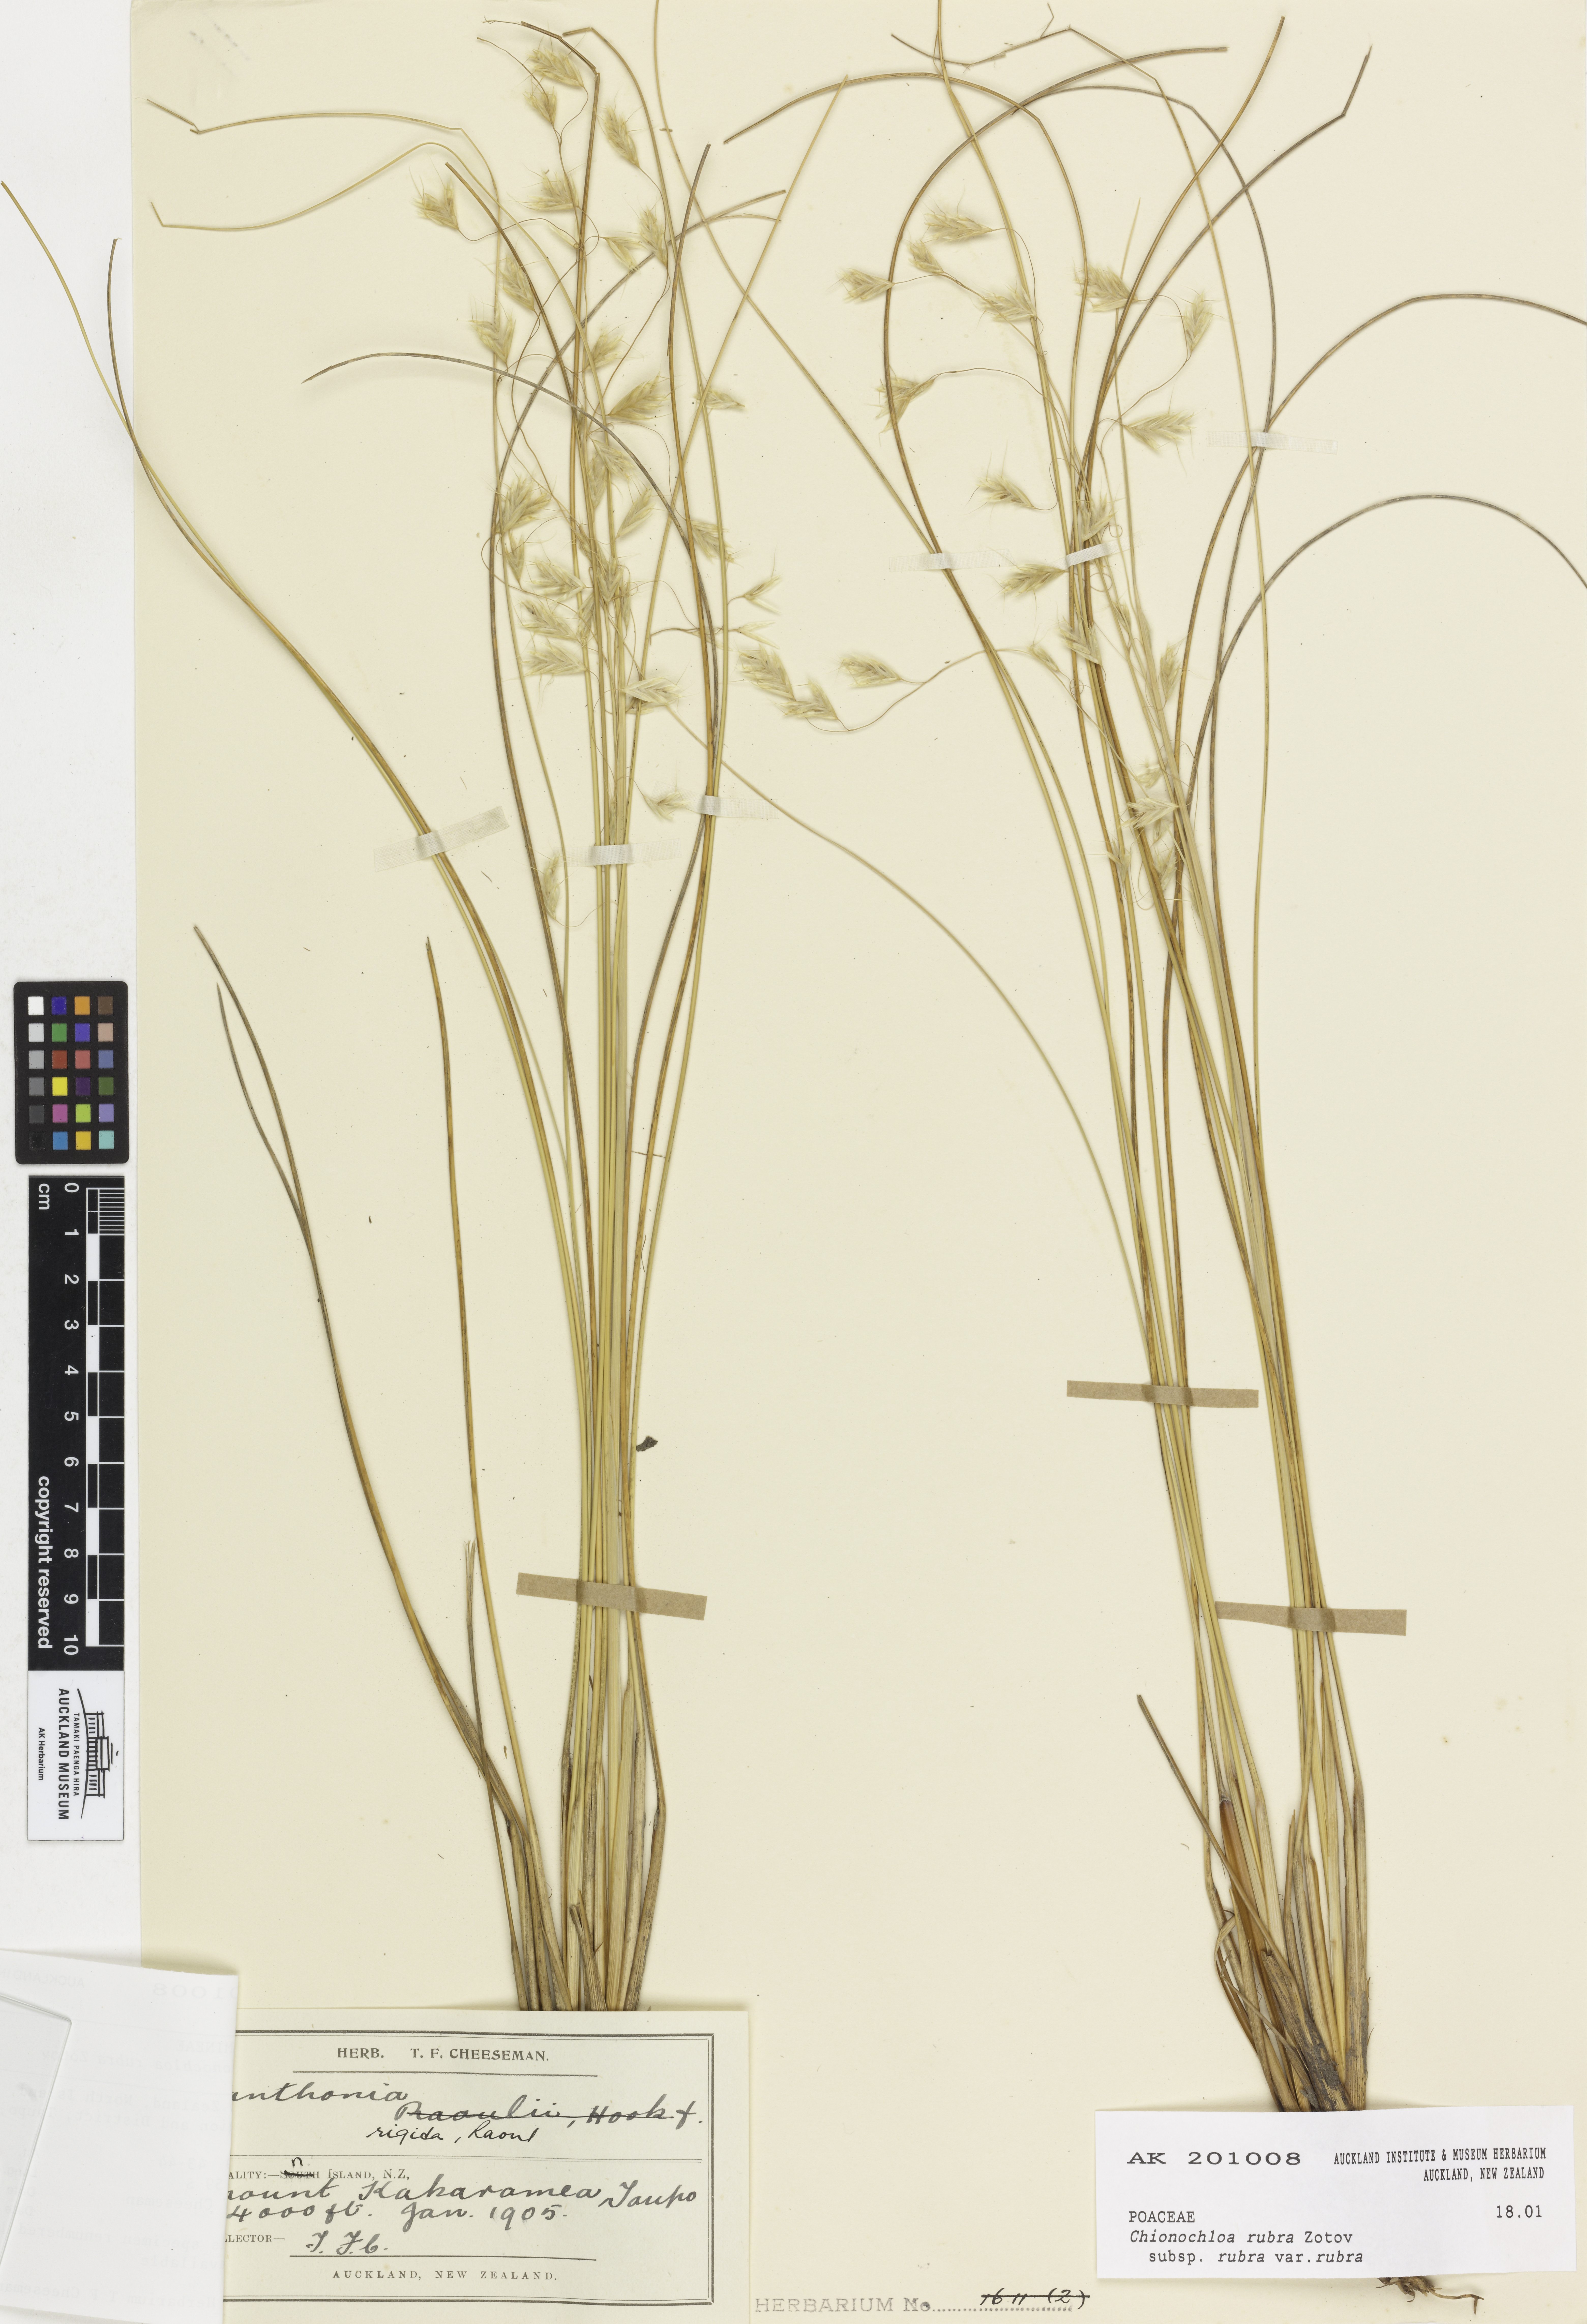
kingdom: Plantae
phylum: Tracheophyta
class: Liliopsida
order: Poales
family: Poaceae
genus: Chionochloa
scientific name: Chionochloa rubra
